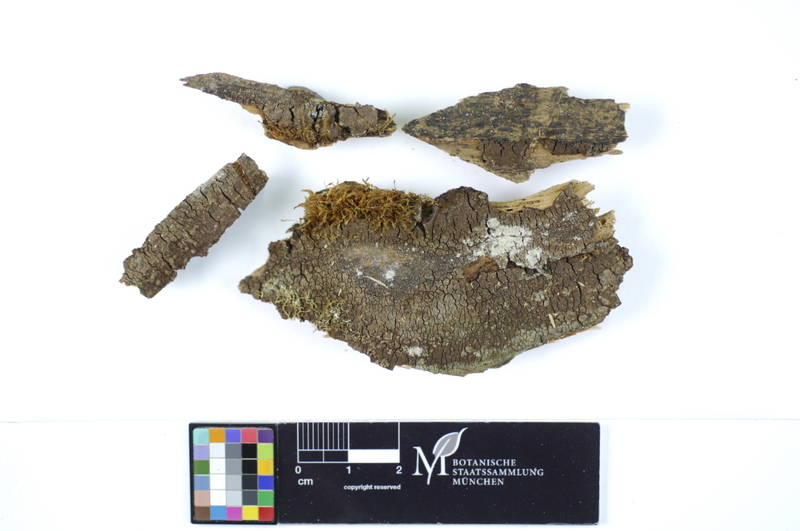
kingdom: Plantae
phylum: Tracheophyta
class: Pinopsida
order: Pinales
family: Pinaceae
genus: Picea
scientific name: Picea
